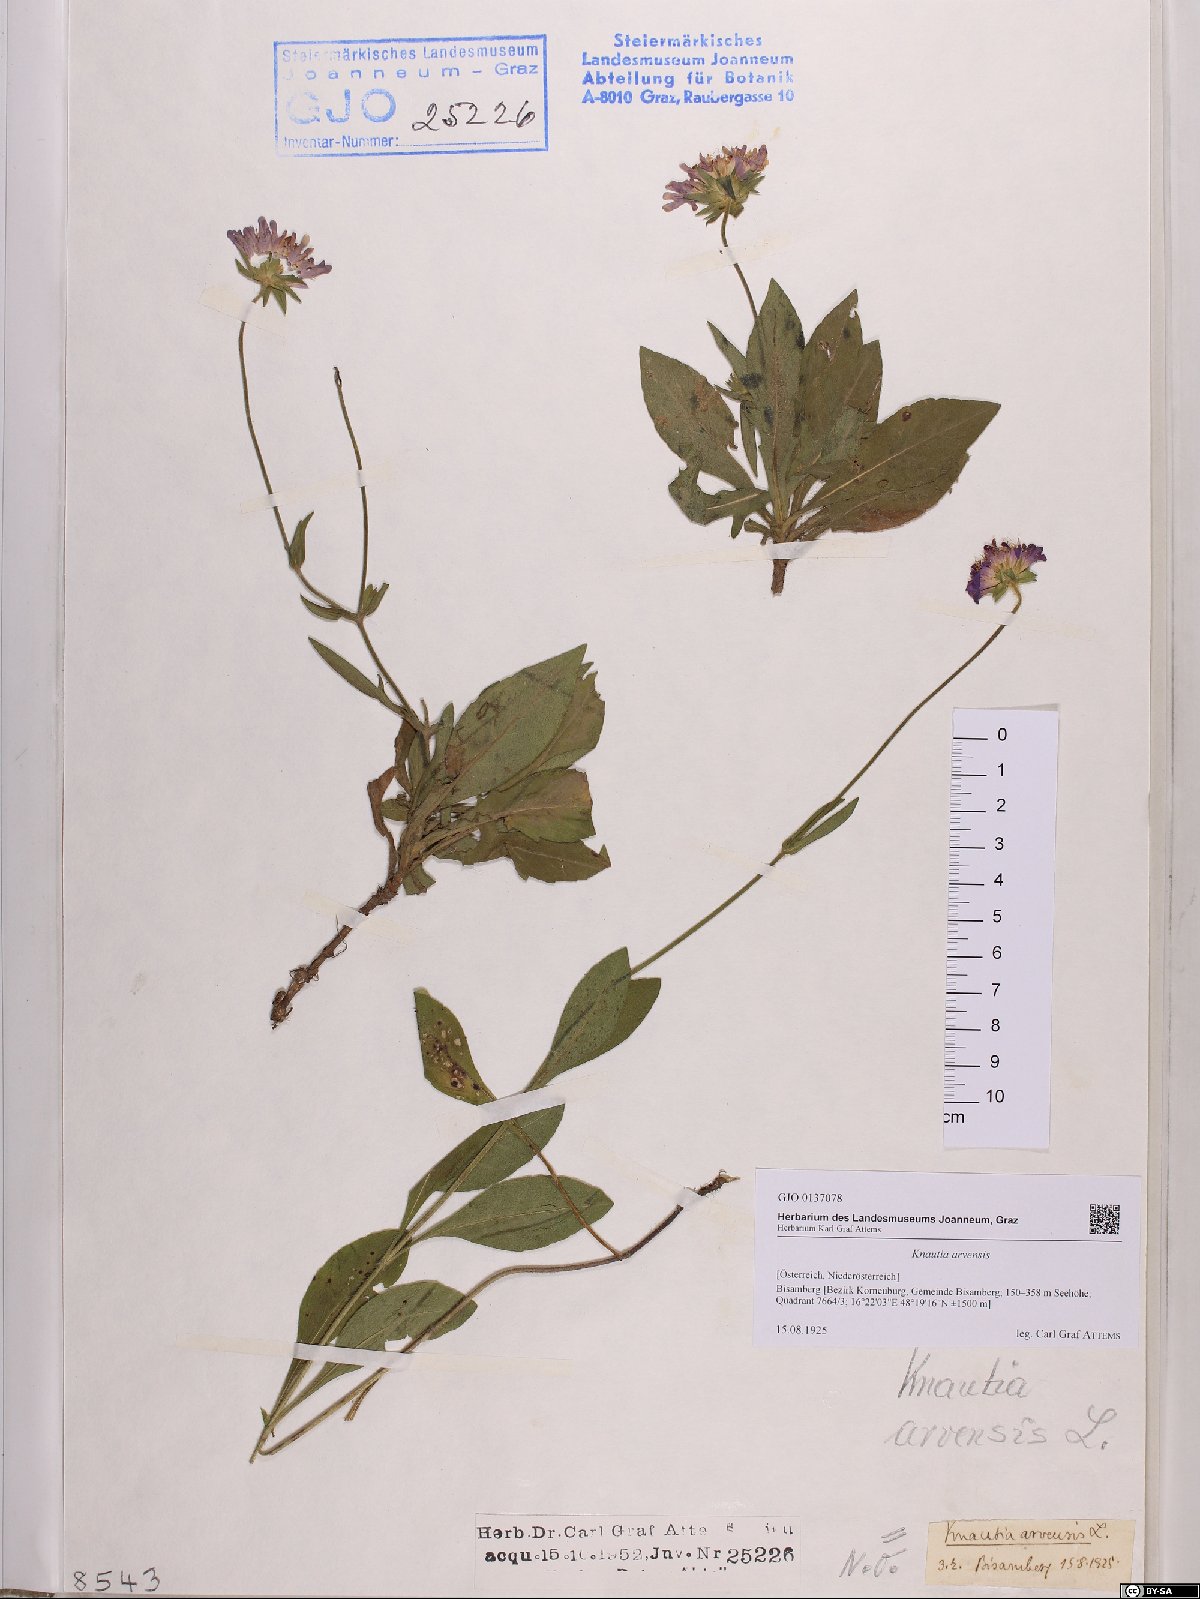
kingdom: Plantae
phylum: Tracheophyta
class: Magnoliopsida
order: Dipsacales
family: Caprifoliaceae
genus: Knautia
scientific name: Knautia arvensis
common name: Field scabiosa
